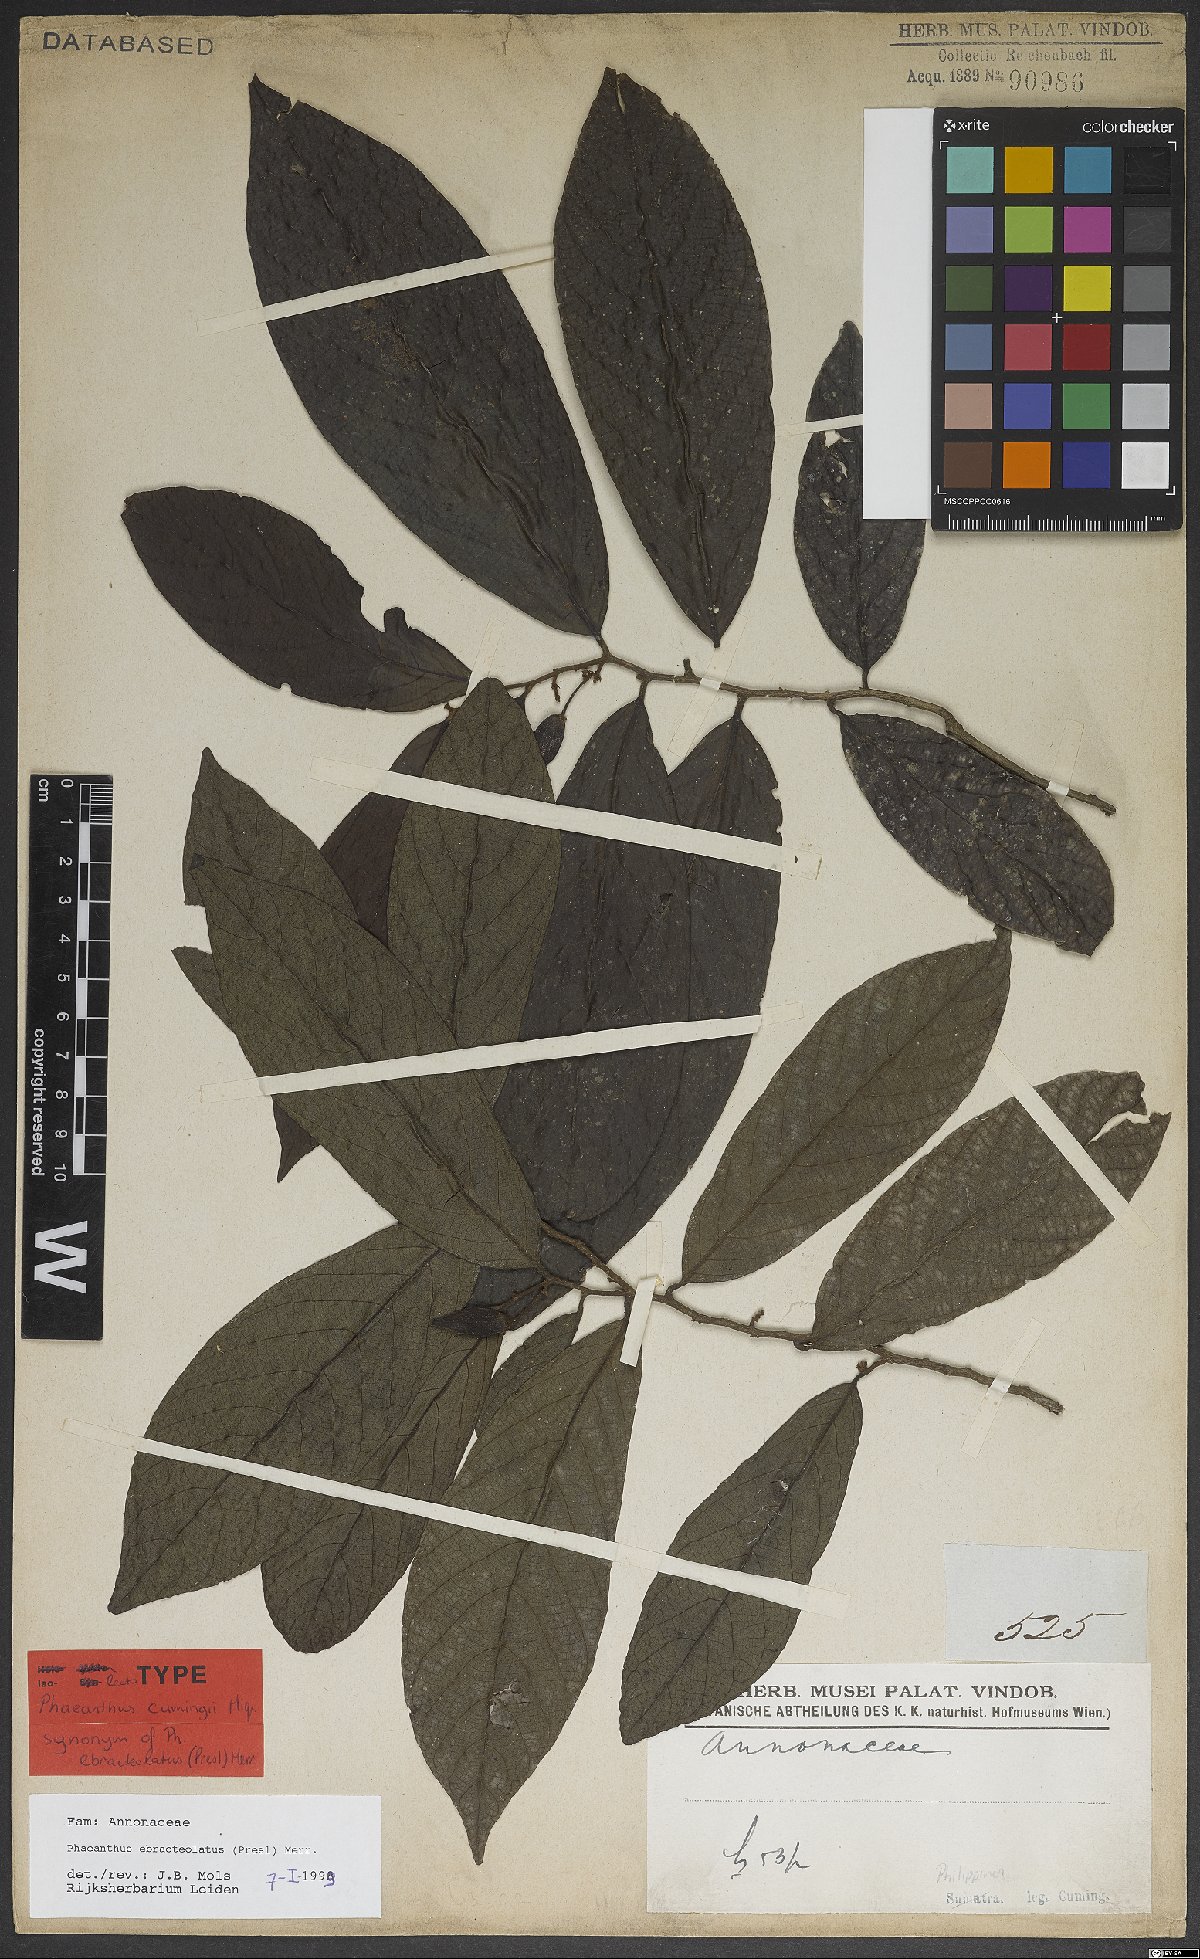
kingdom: Plantae
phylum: Tracheophyta
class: Magnoliopsida
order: Magnoliales
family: Annonaceae
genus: Phaeanthus
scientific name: Phaeanthus ophthalmicus
